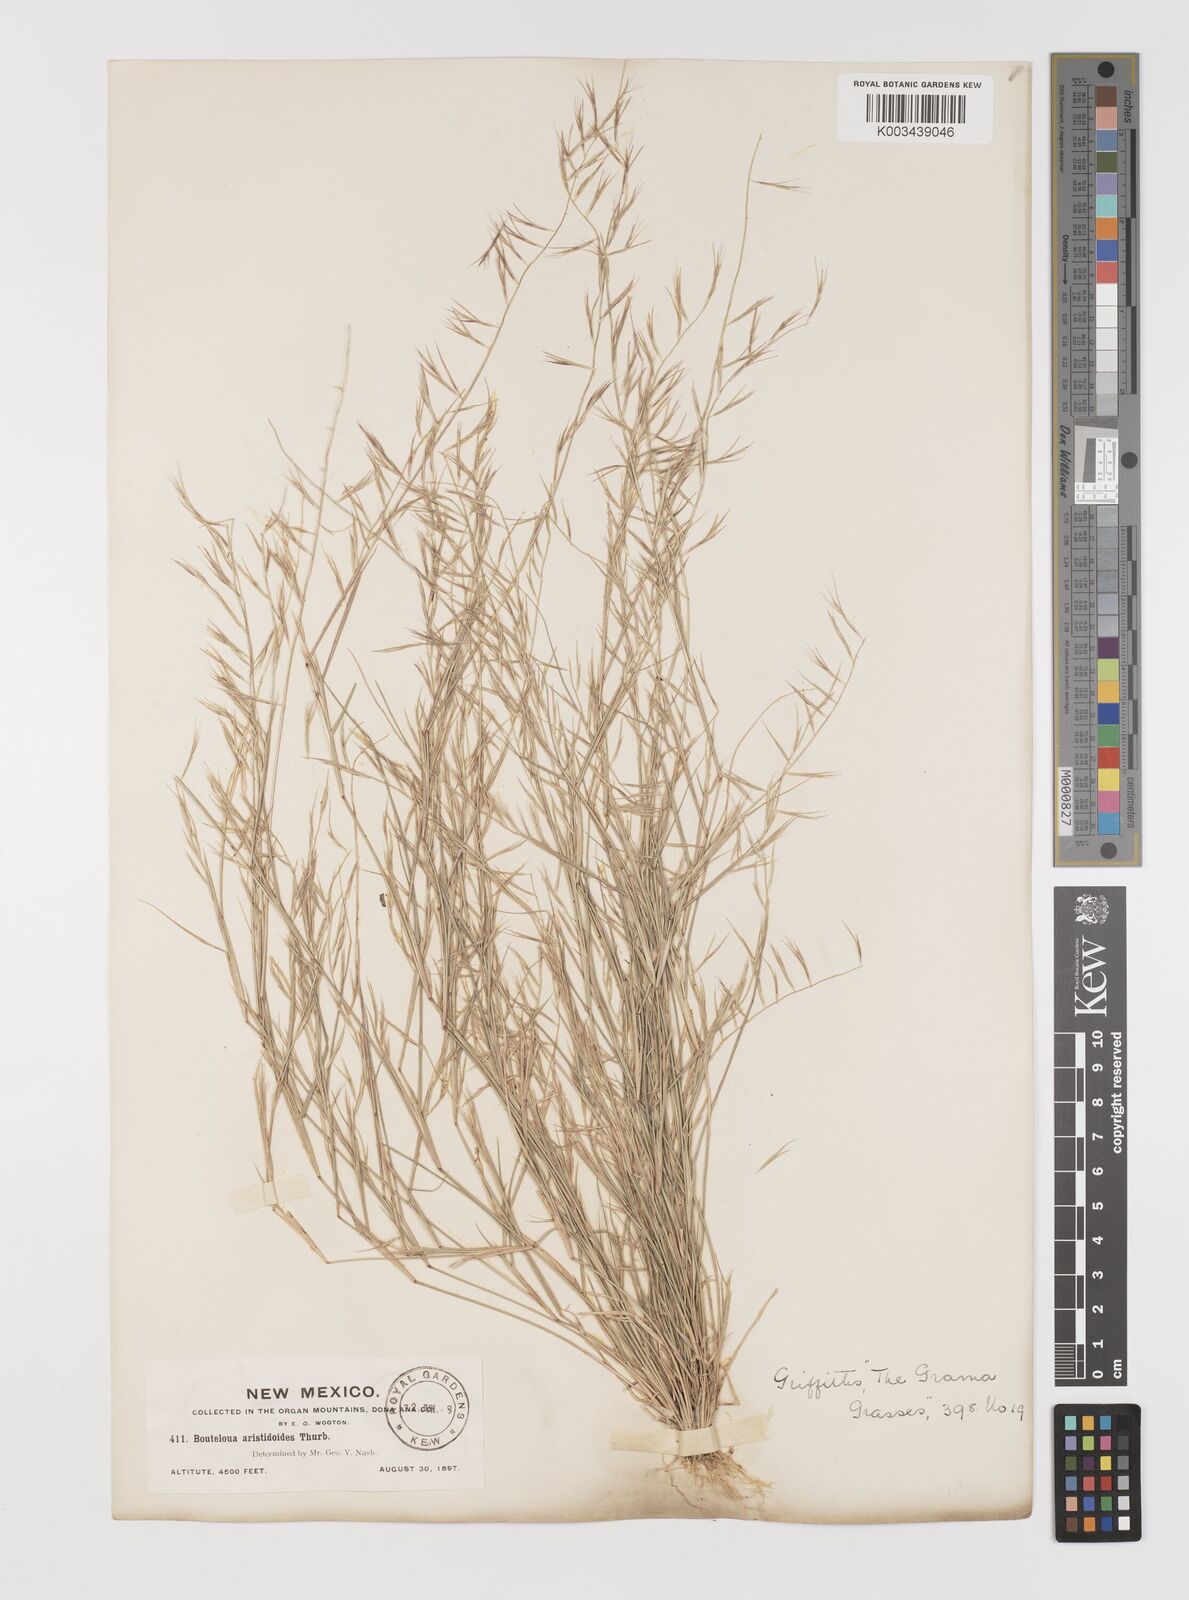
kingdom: Plantae
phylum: Tracheophyta
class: Liliopsida
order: Poales
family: Poaceae
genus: Bouteloua
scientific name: Bouteloua aristidoides
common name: Needle grama
